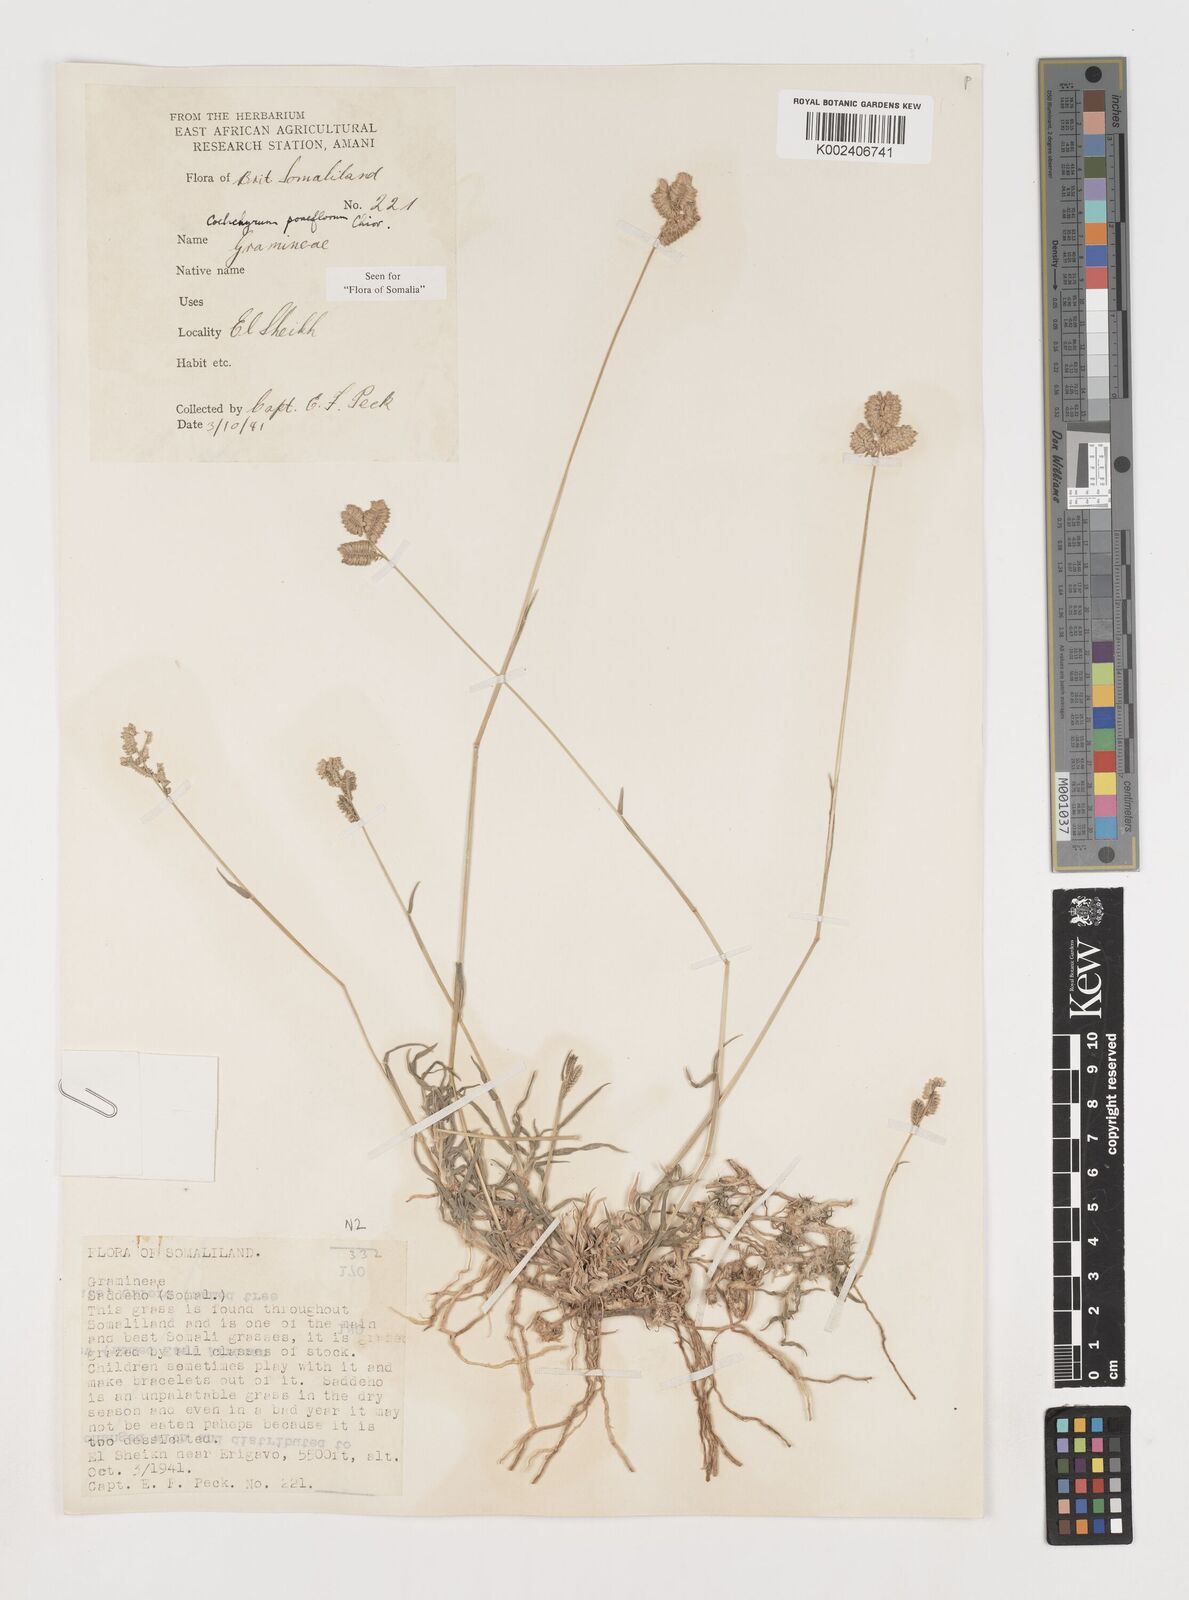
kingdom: Plantae
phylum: Tracheophyta
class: Liliopsida
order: Poales
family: Poaceae
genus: Coelachyrum
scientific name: Coelachyrum poiflorum
